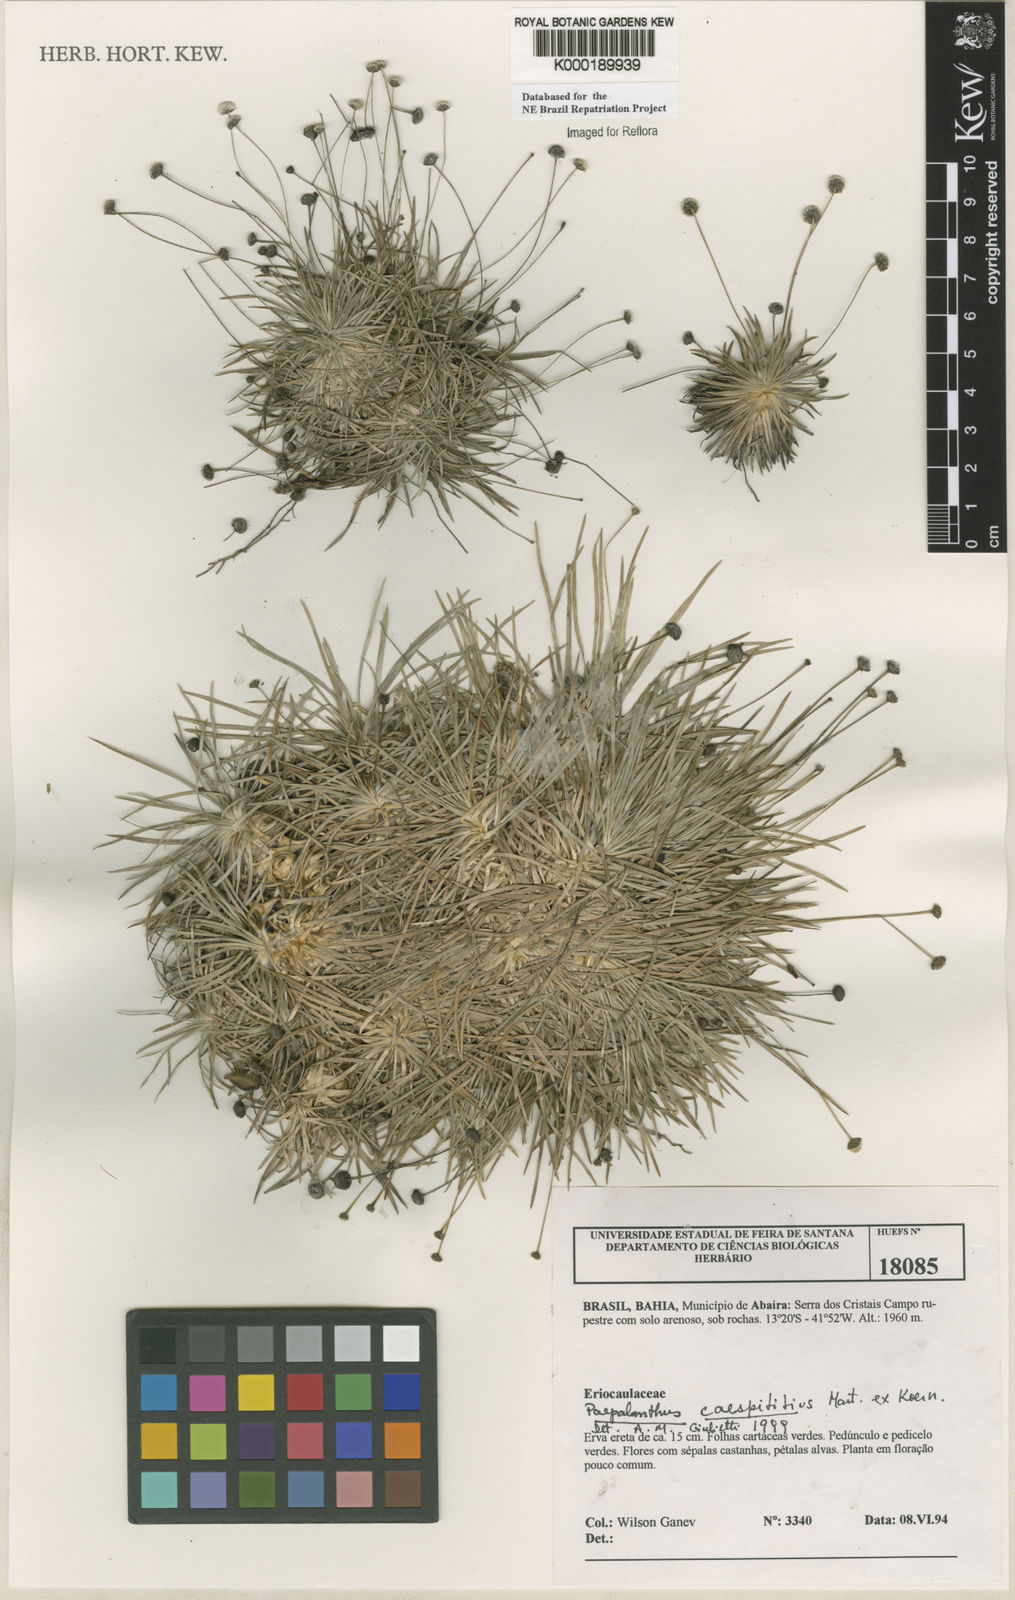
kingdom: Plantae
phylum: Tracheophyta
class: Liliopsida
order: Poales
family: Eriocaulaceae
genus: Paepalanthus
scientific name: Paepalanthus
